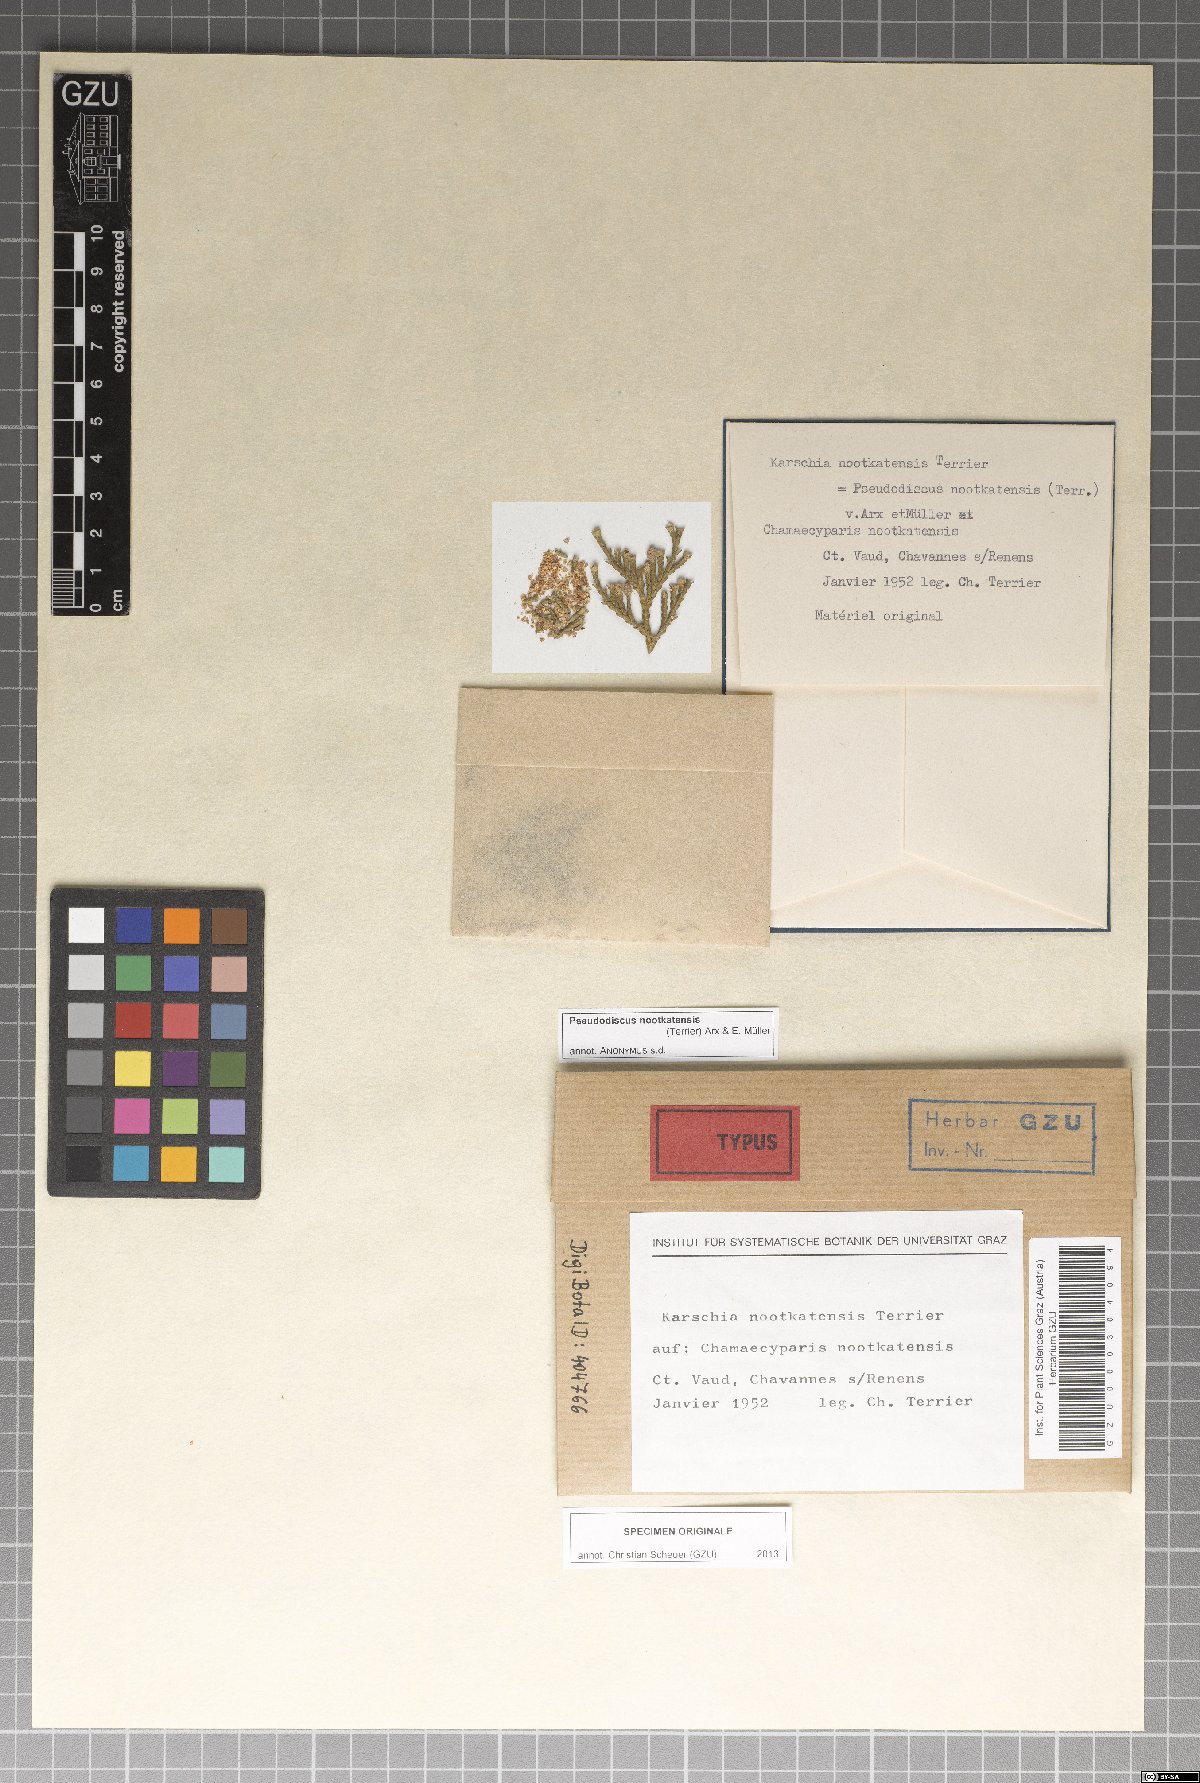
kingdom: Fungi
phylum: Ascomycota
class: Dothideomycetes
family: Saccardiaceae
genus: Pseudodiscus
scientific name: Pseudodiscus nootkatensis
